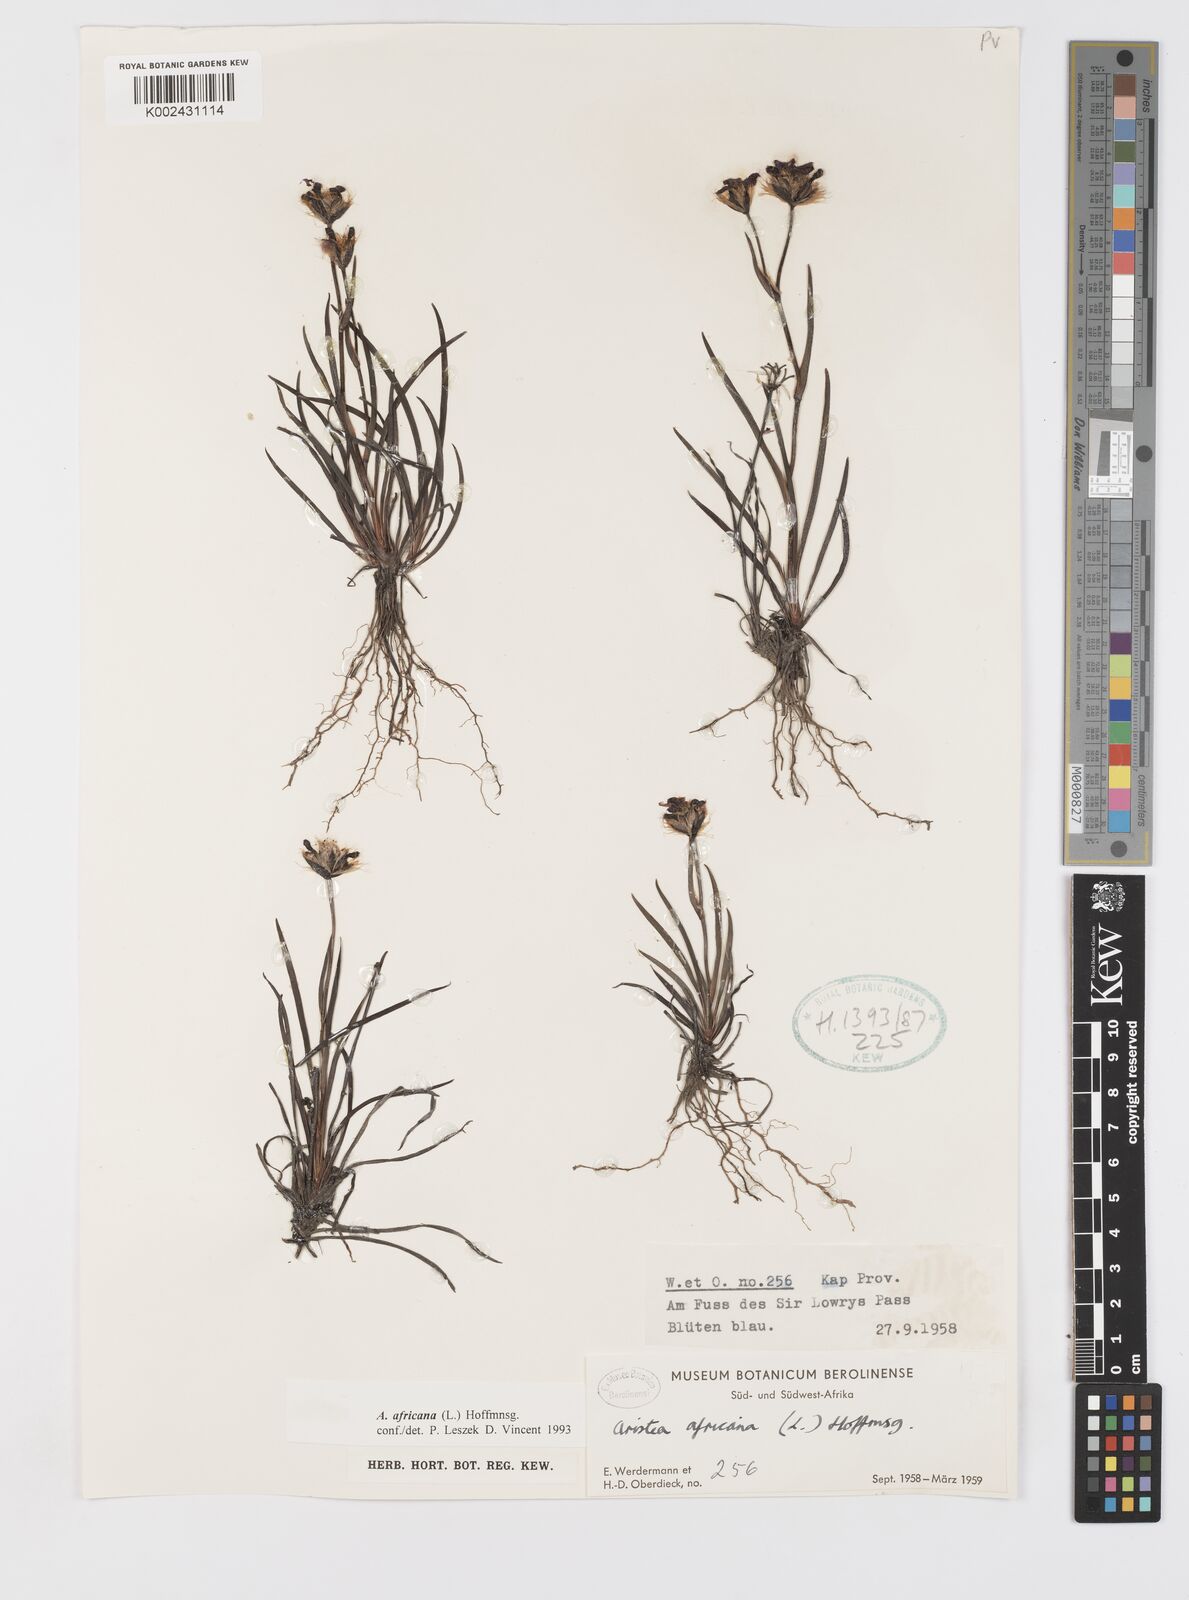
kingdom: Plantae
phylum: Tracheophyta
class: Liliopsida
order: Asparagales
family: Iridaceae
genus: Aristea
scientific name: Aristea africana
